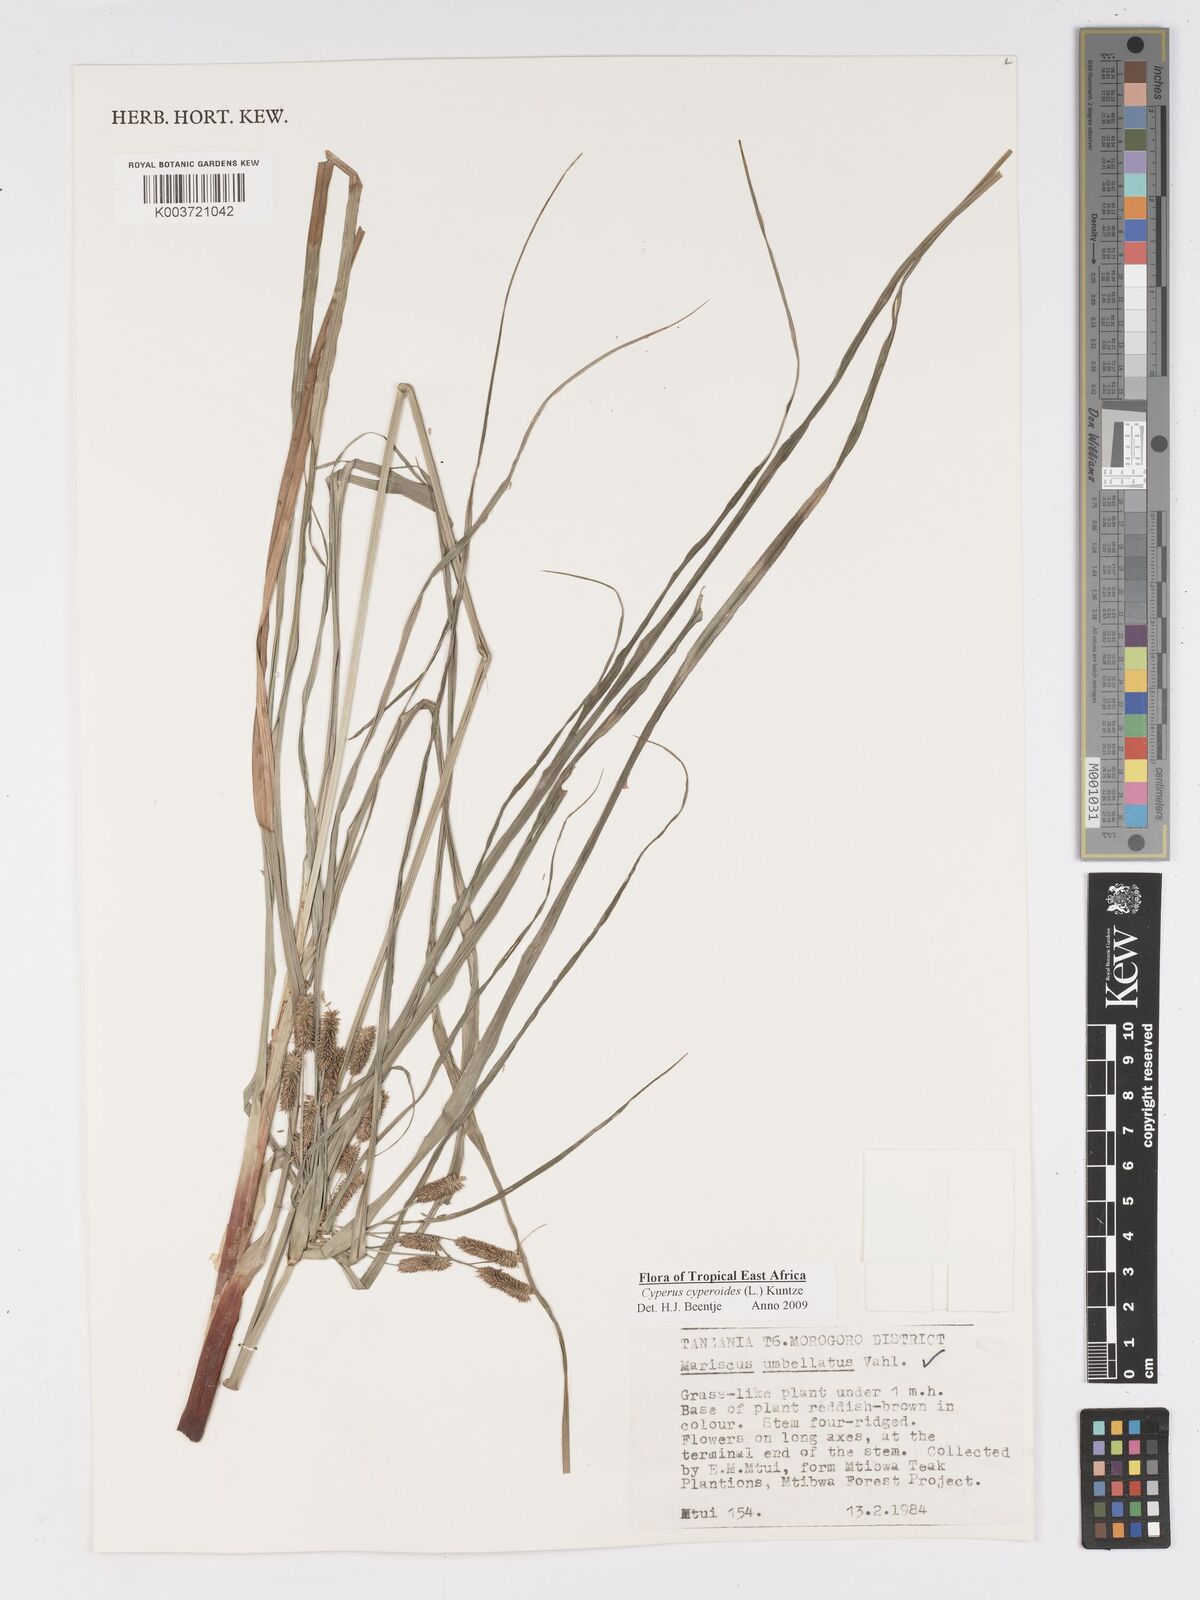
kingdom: Plantae
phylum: Tracheophyta
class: Liliopsida
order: Poales
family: Cyperaceae
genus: Cyperus
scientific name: Cyperus cyperoides
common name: Pacific island flat sedge
